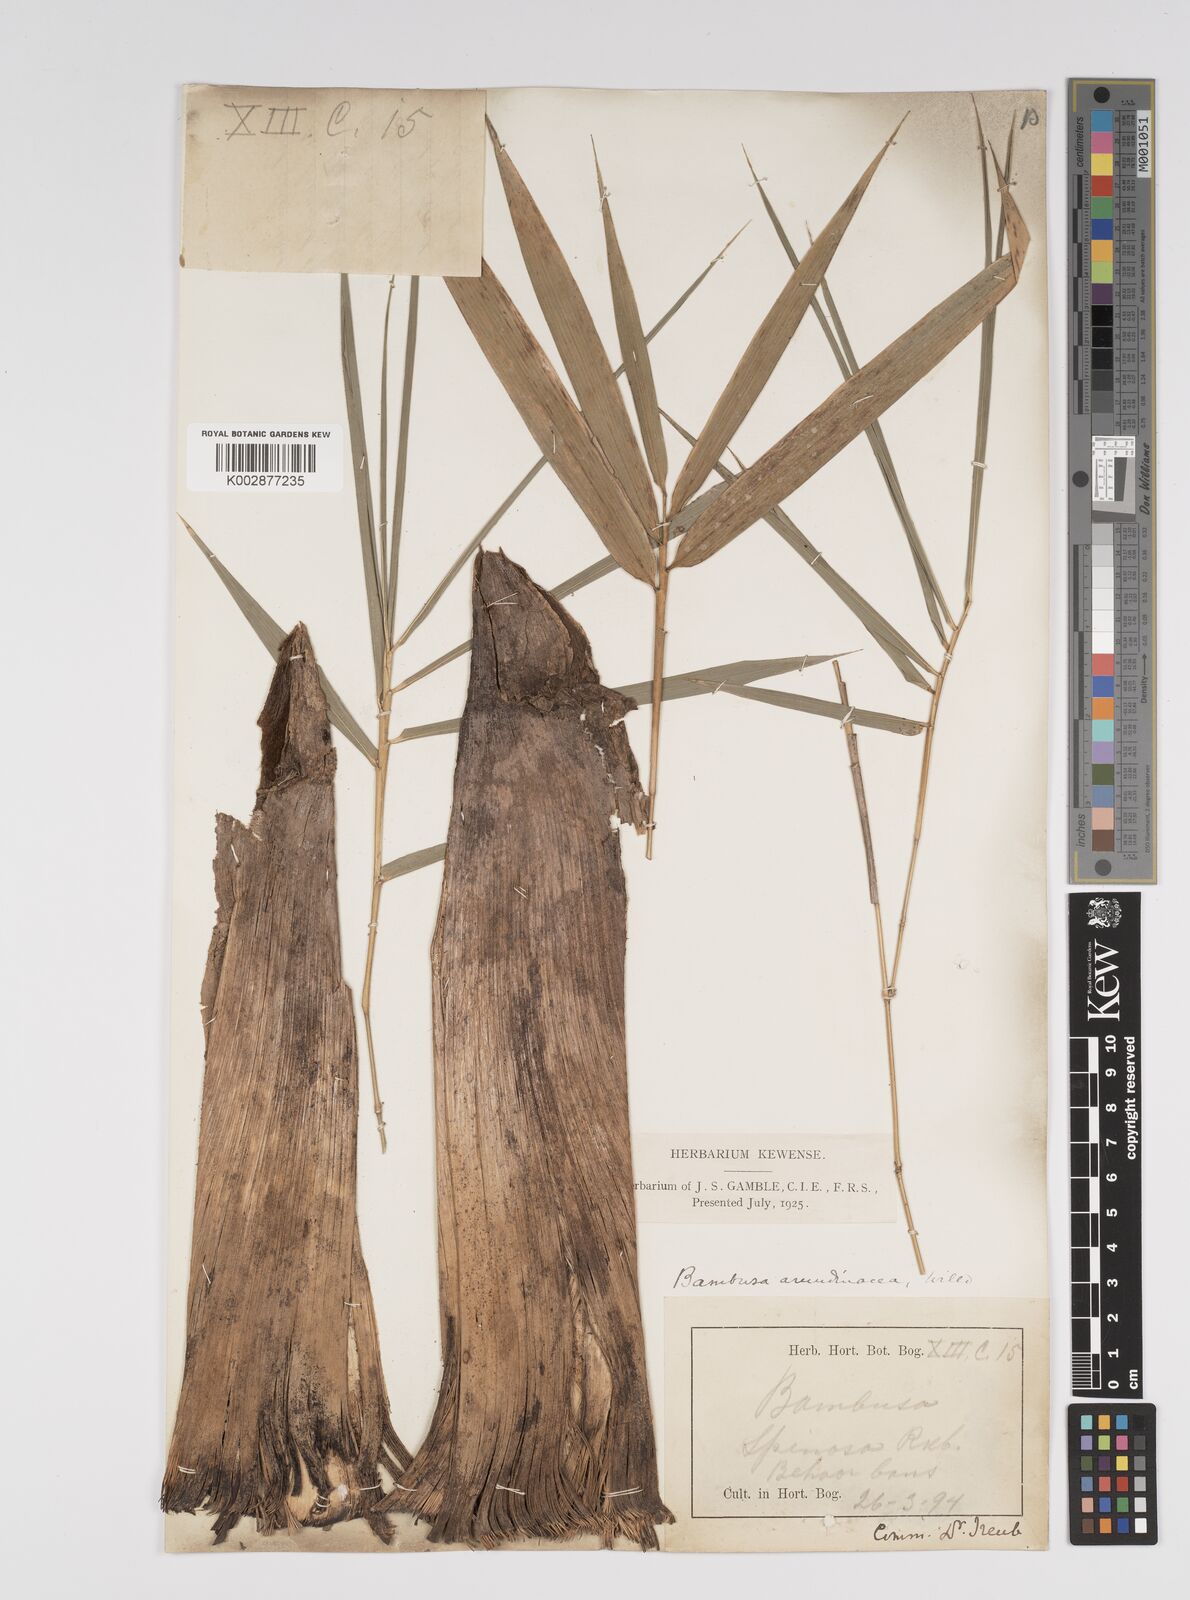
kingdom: Plantae
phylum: Tracheophyta
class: Liliopsida
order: Poales
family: Poaceae
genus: Bambusa
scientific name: Bambusa bambos
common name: Indian thorny bamboo
